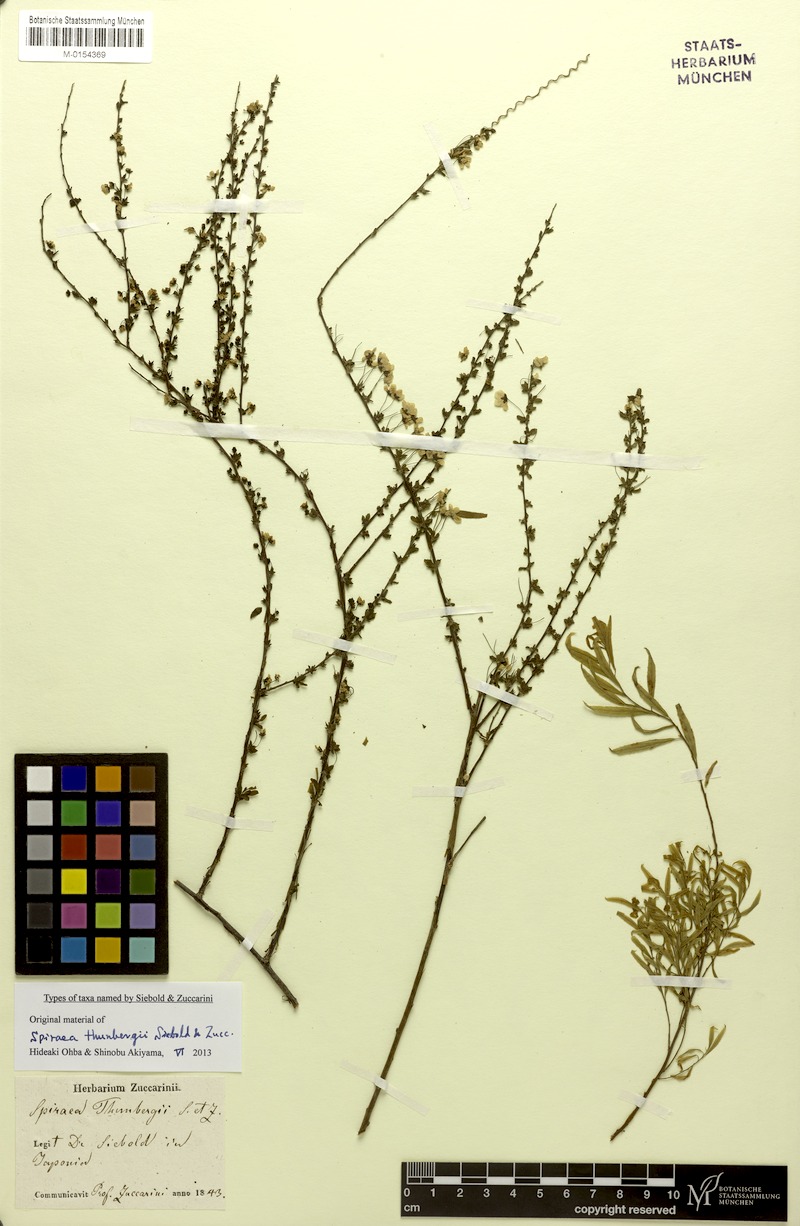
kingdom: Plantae
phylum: Tracheophyta
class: Magnoliopsida
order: Rosales
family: Rosaceae
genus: Spiraea
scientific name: Spiraea thunbergii
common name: Thunberg's meadowsweet
